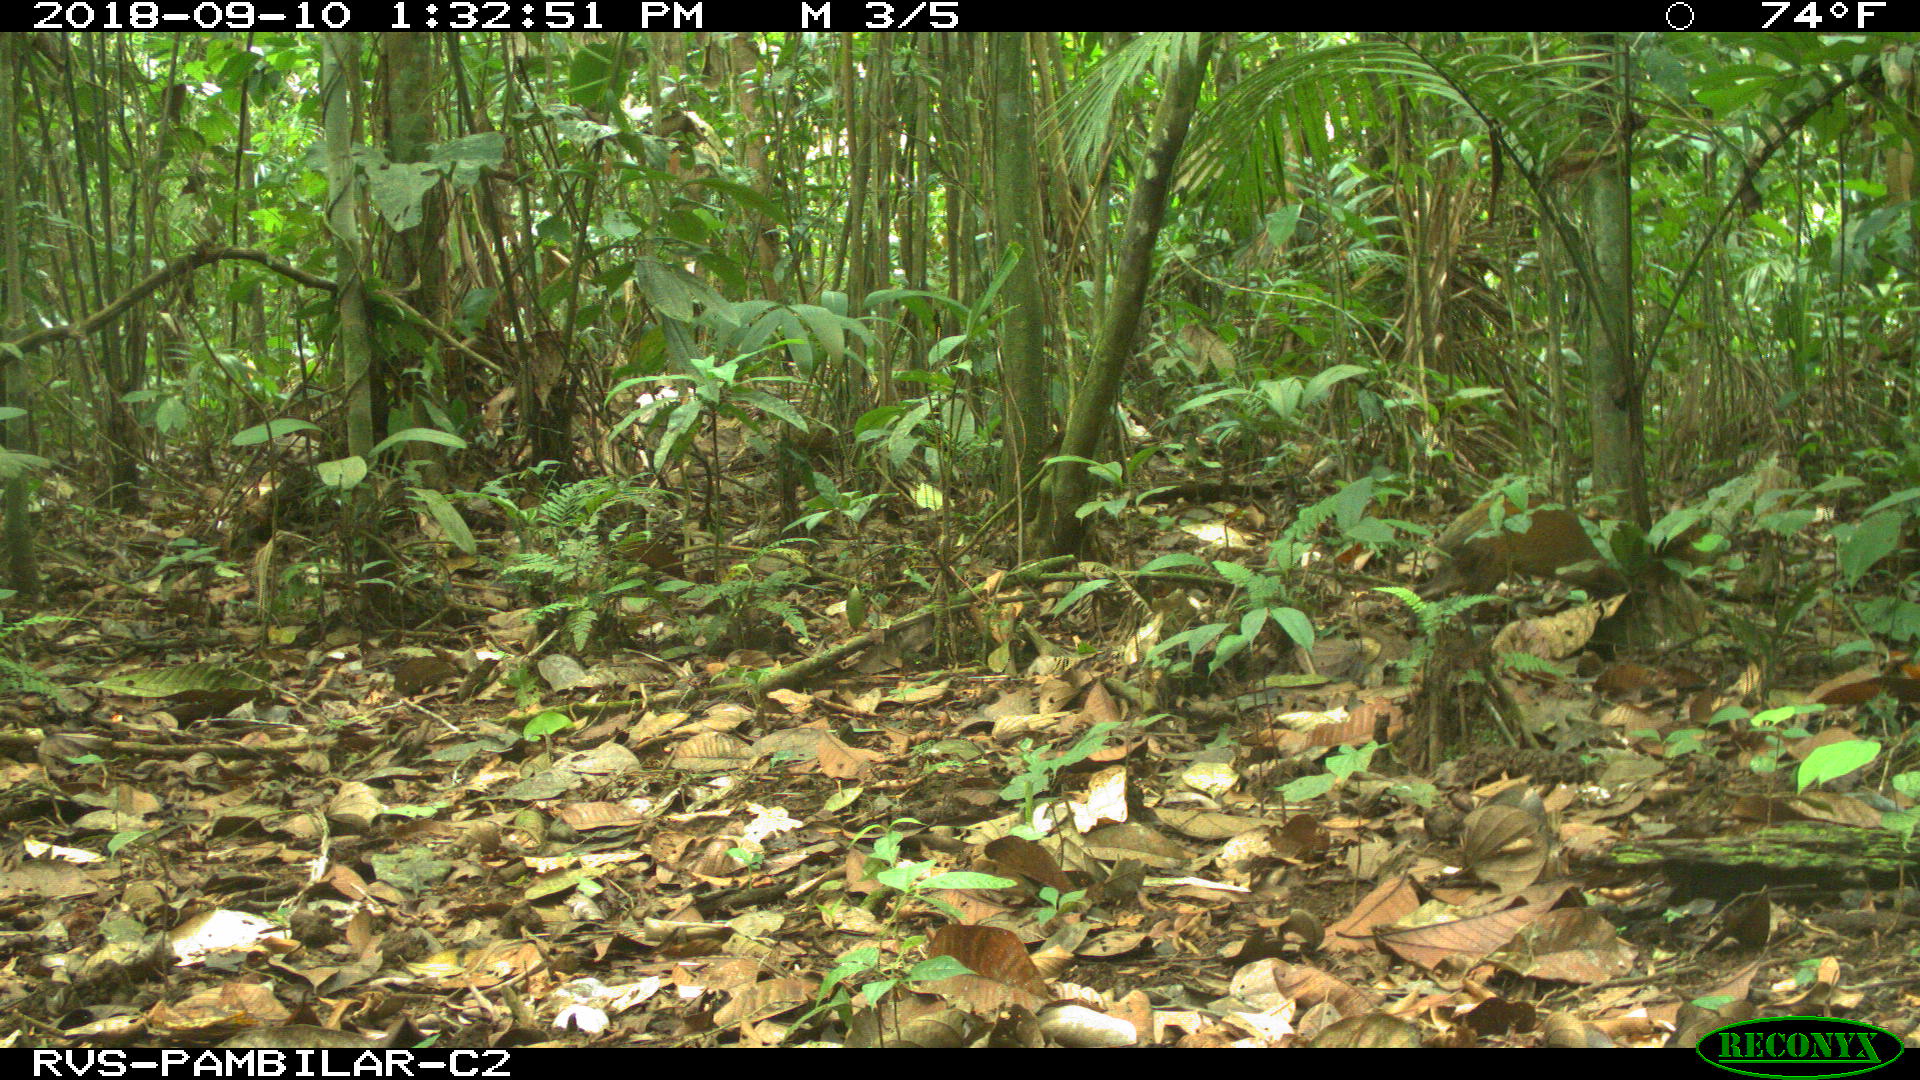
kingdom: Animalia
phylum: Chordata
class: Mammalia
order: Rodentia
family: Dasyproctidae
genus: Dasyprocta
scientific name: Dasyprocta punctata
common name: Central american agouti
